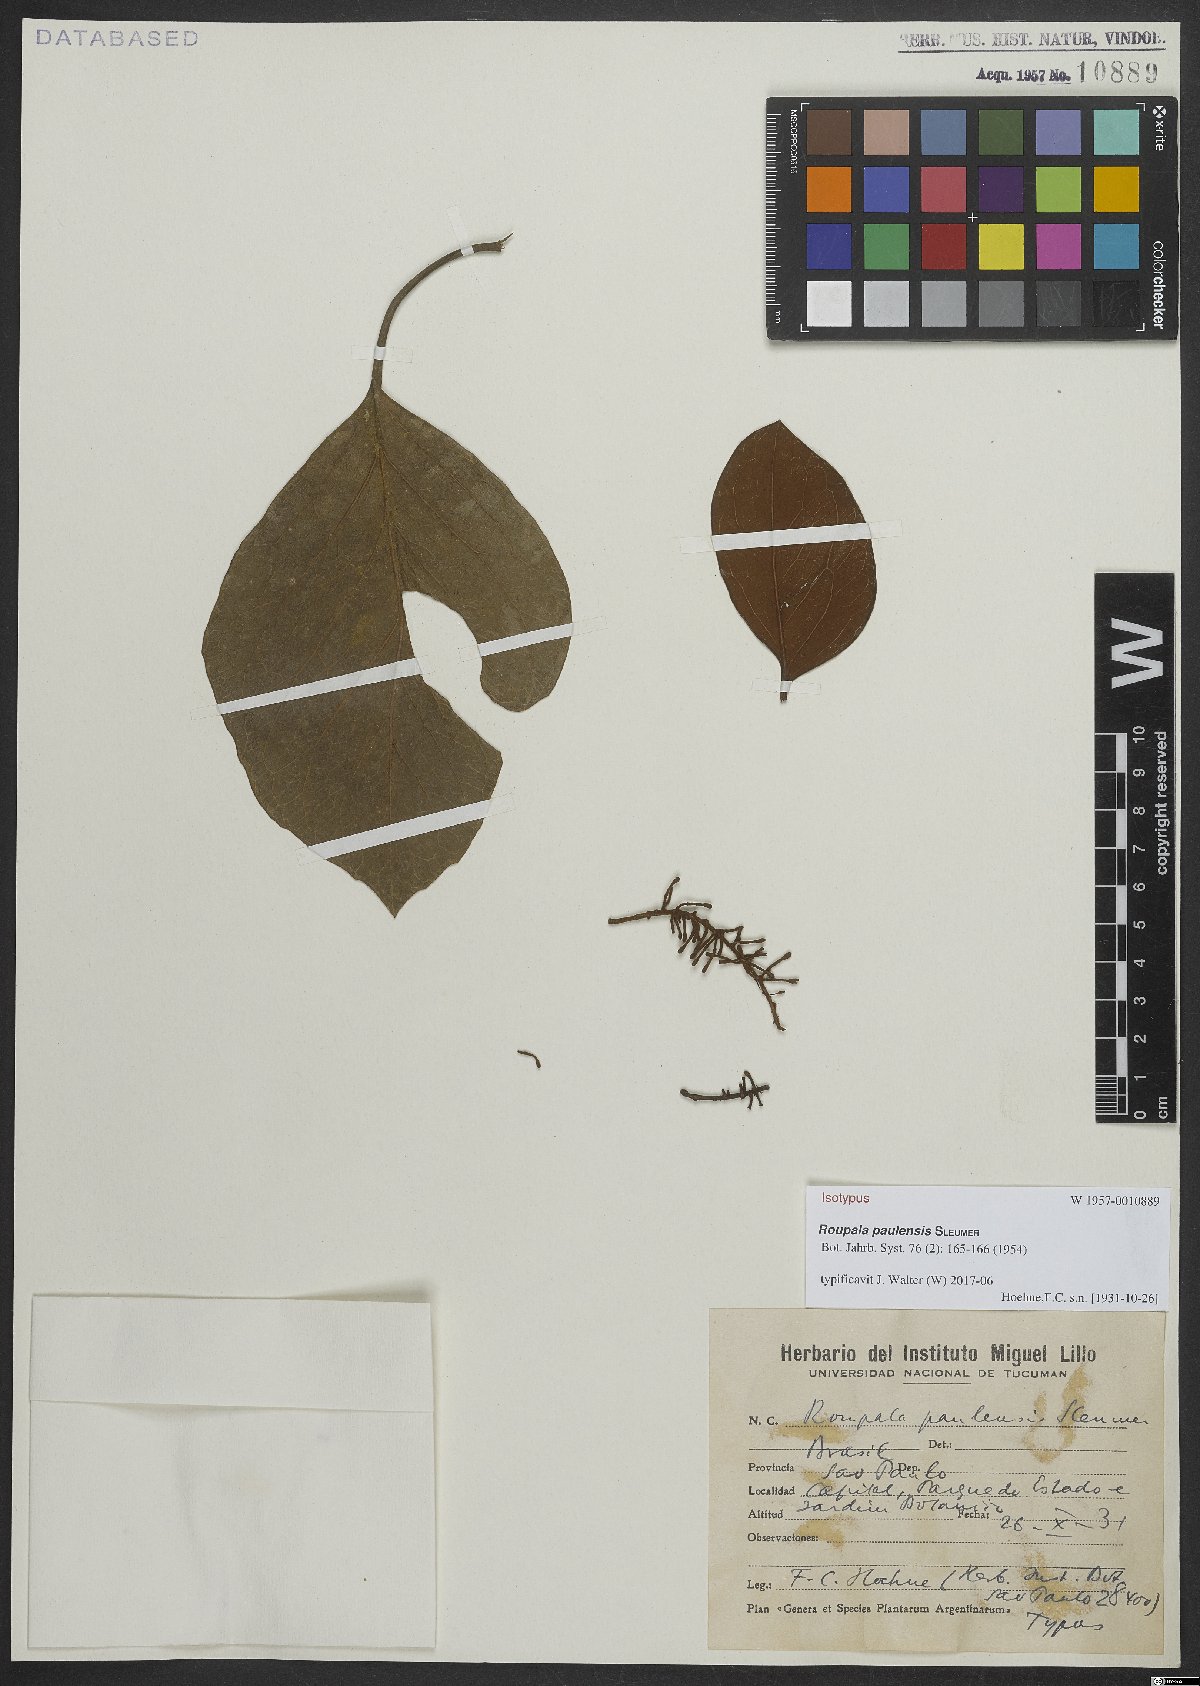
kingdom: Plantae
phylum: Tracheophyta
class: Magnoliopsida
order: Proteales
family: Proteaceae
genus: Roupala
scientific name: Roupala paulensis
